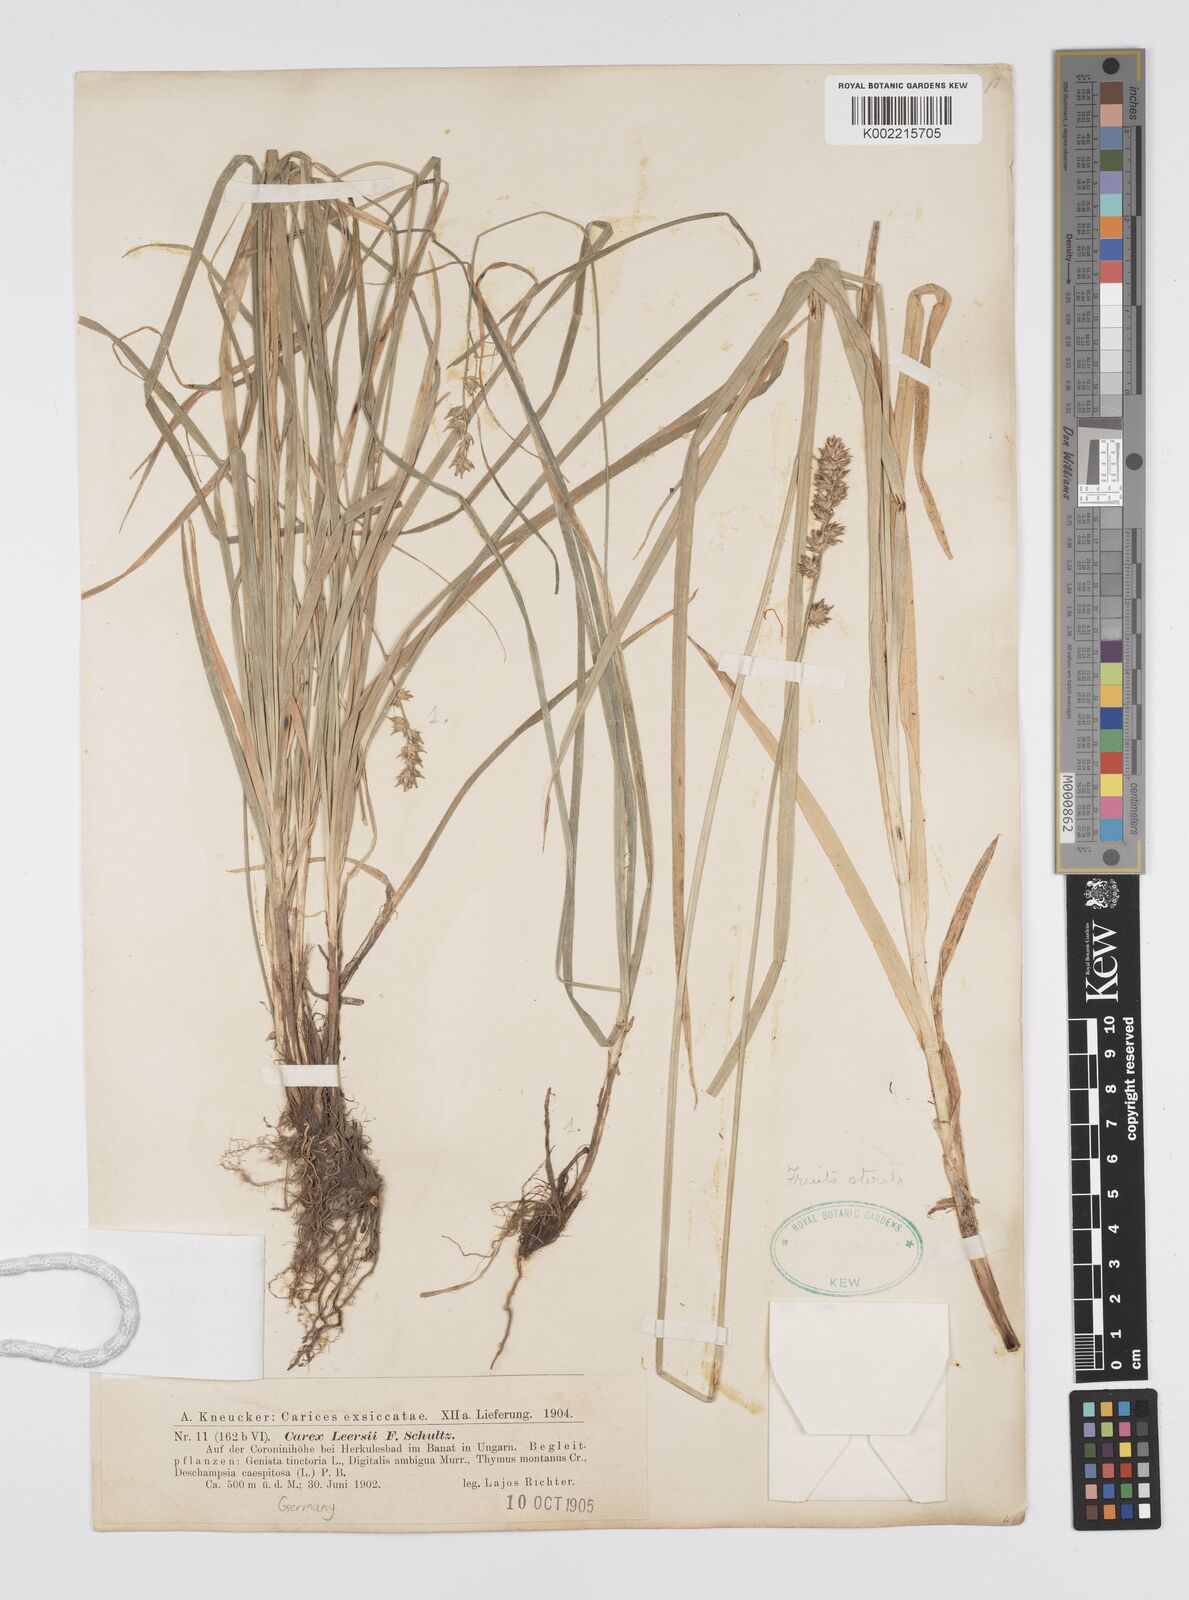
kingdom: Plantae
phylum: Tracheophyta
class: Liliopsida
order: Poales
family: Cyperaceae
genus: Carex
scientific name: Carex egorovae
